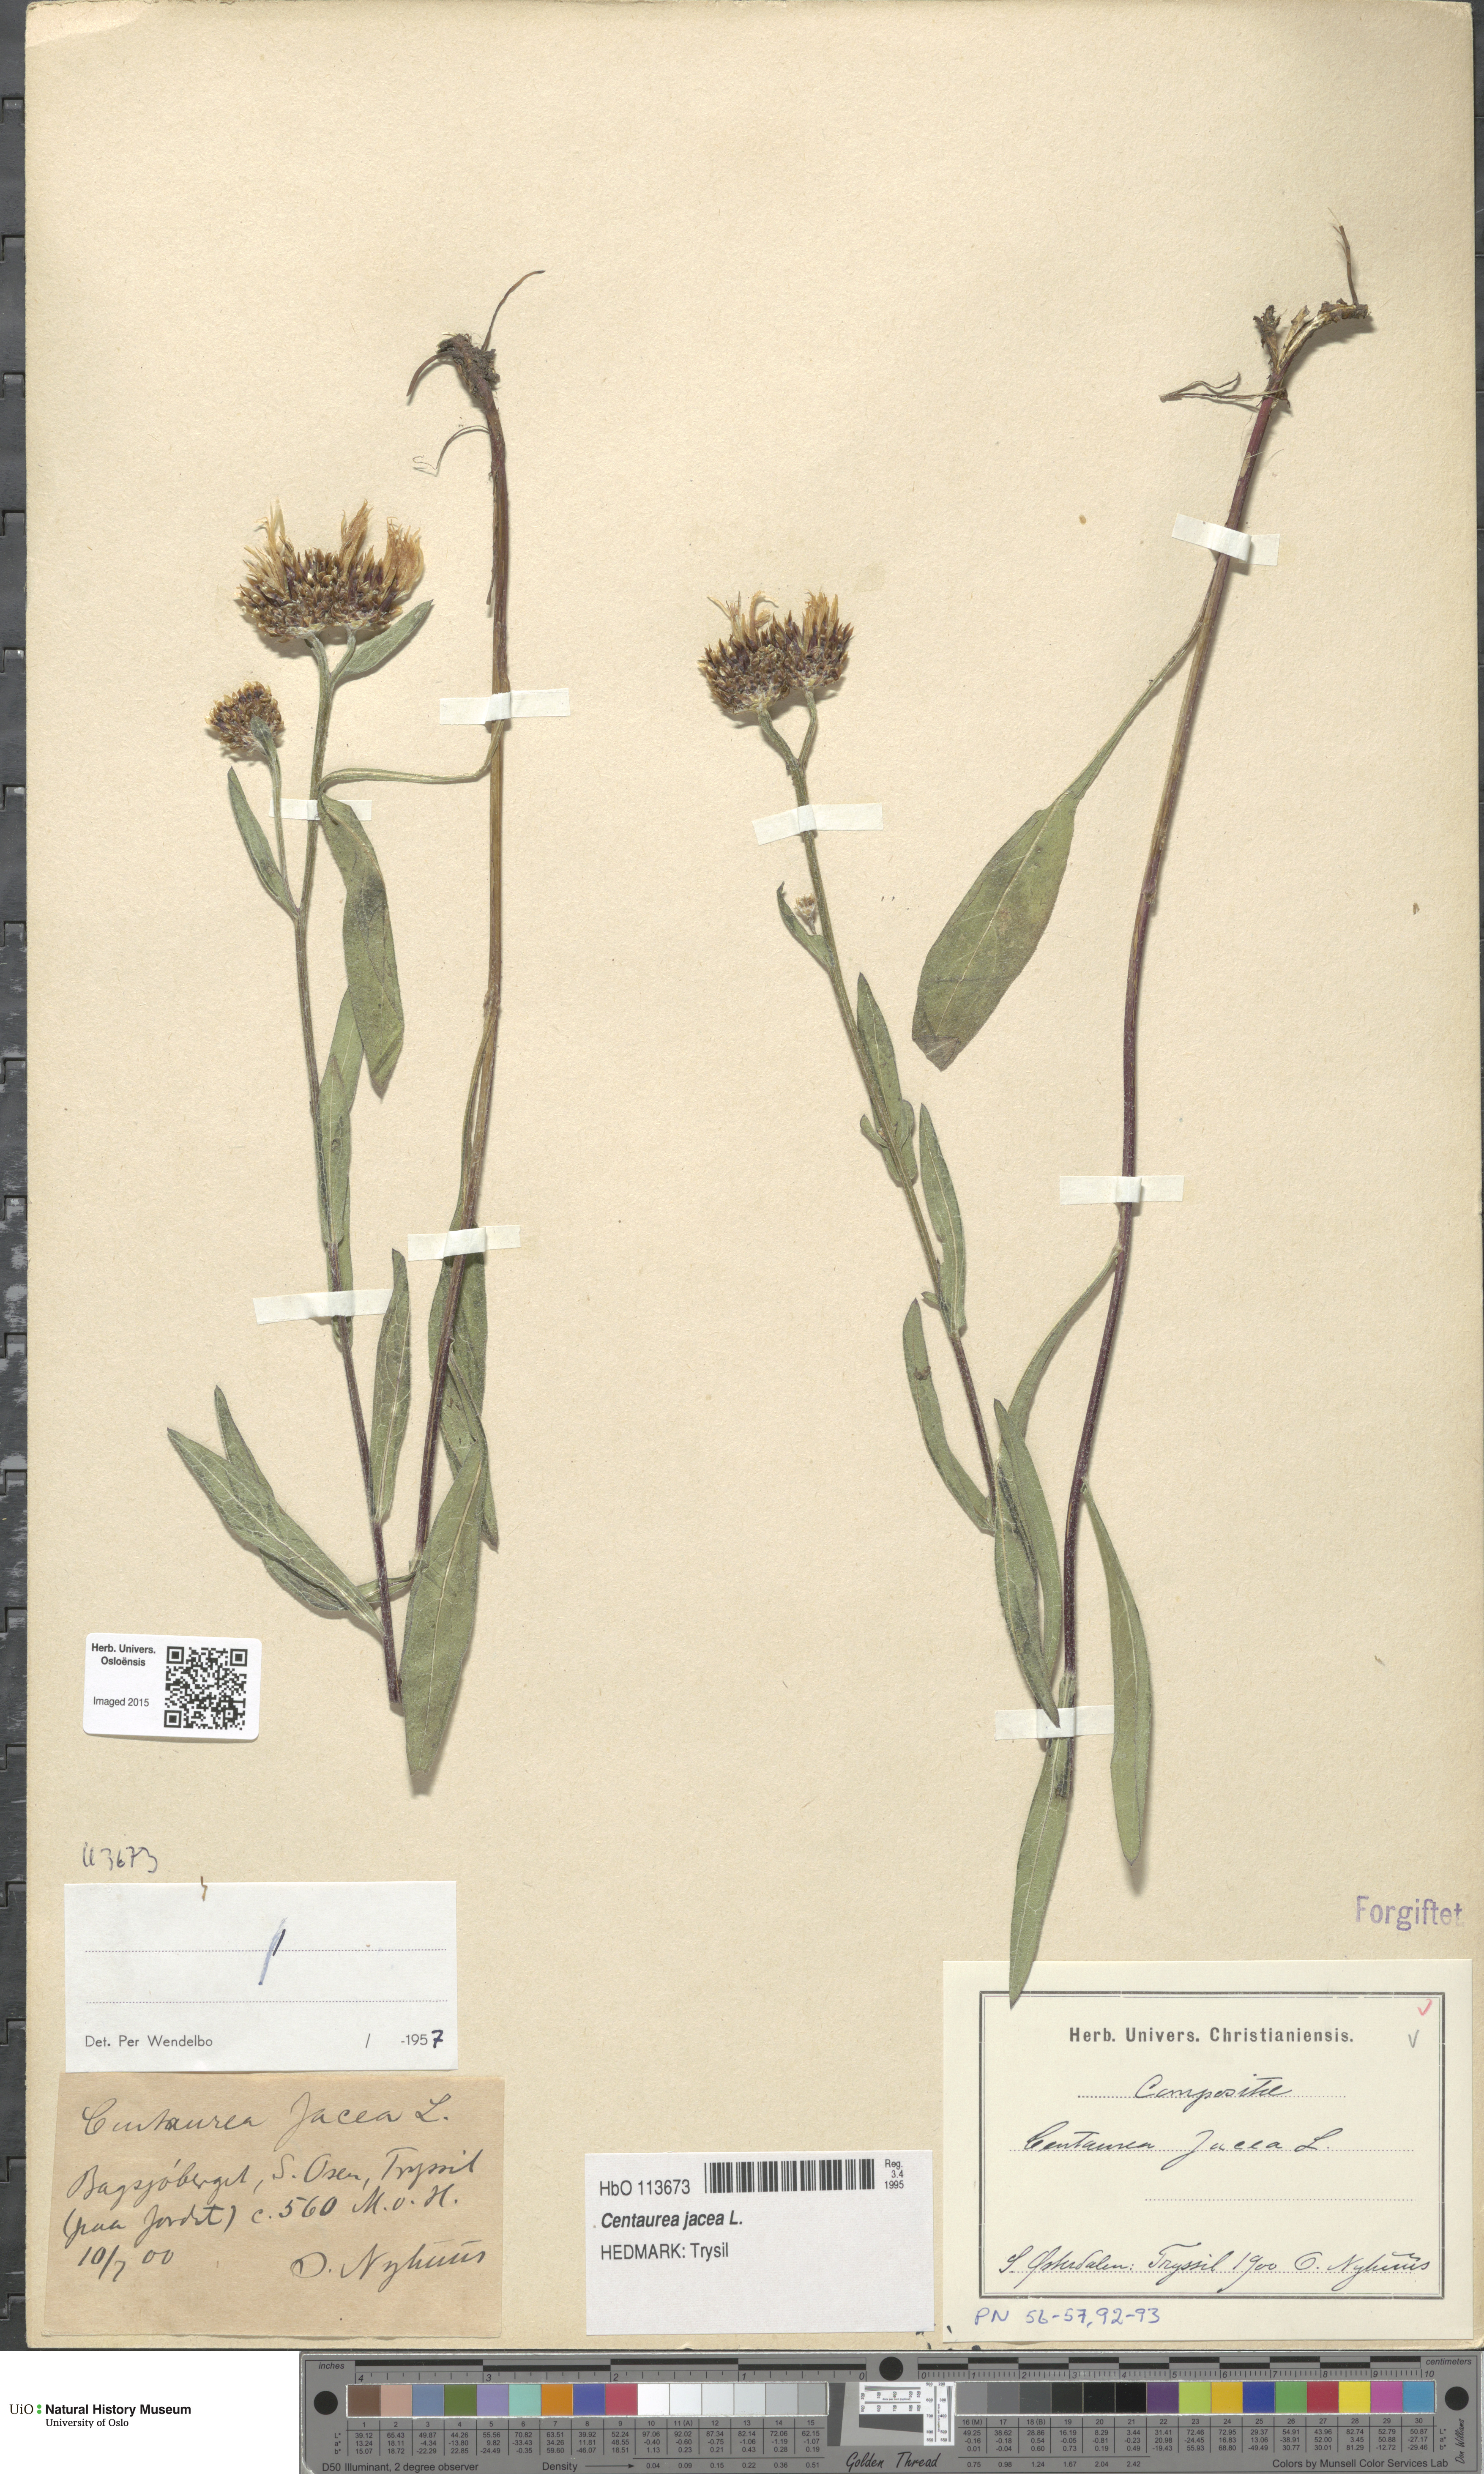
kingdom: Plantae
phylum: Tracheophyta
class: Magnoliopsida
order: Asterales
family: Asteraceae
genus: Centaurea
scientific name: Centaurea jacea
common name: Brown knapweed
